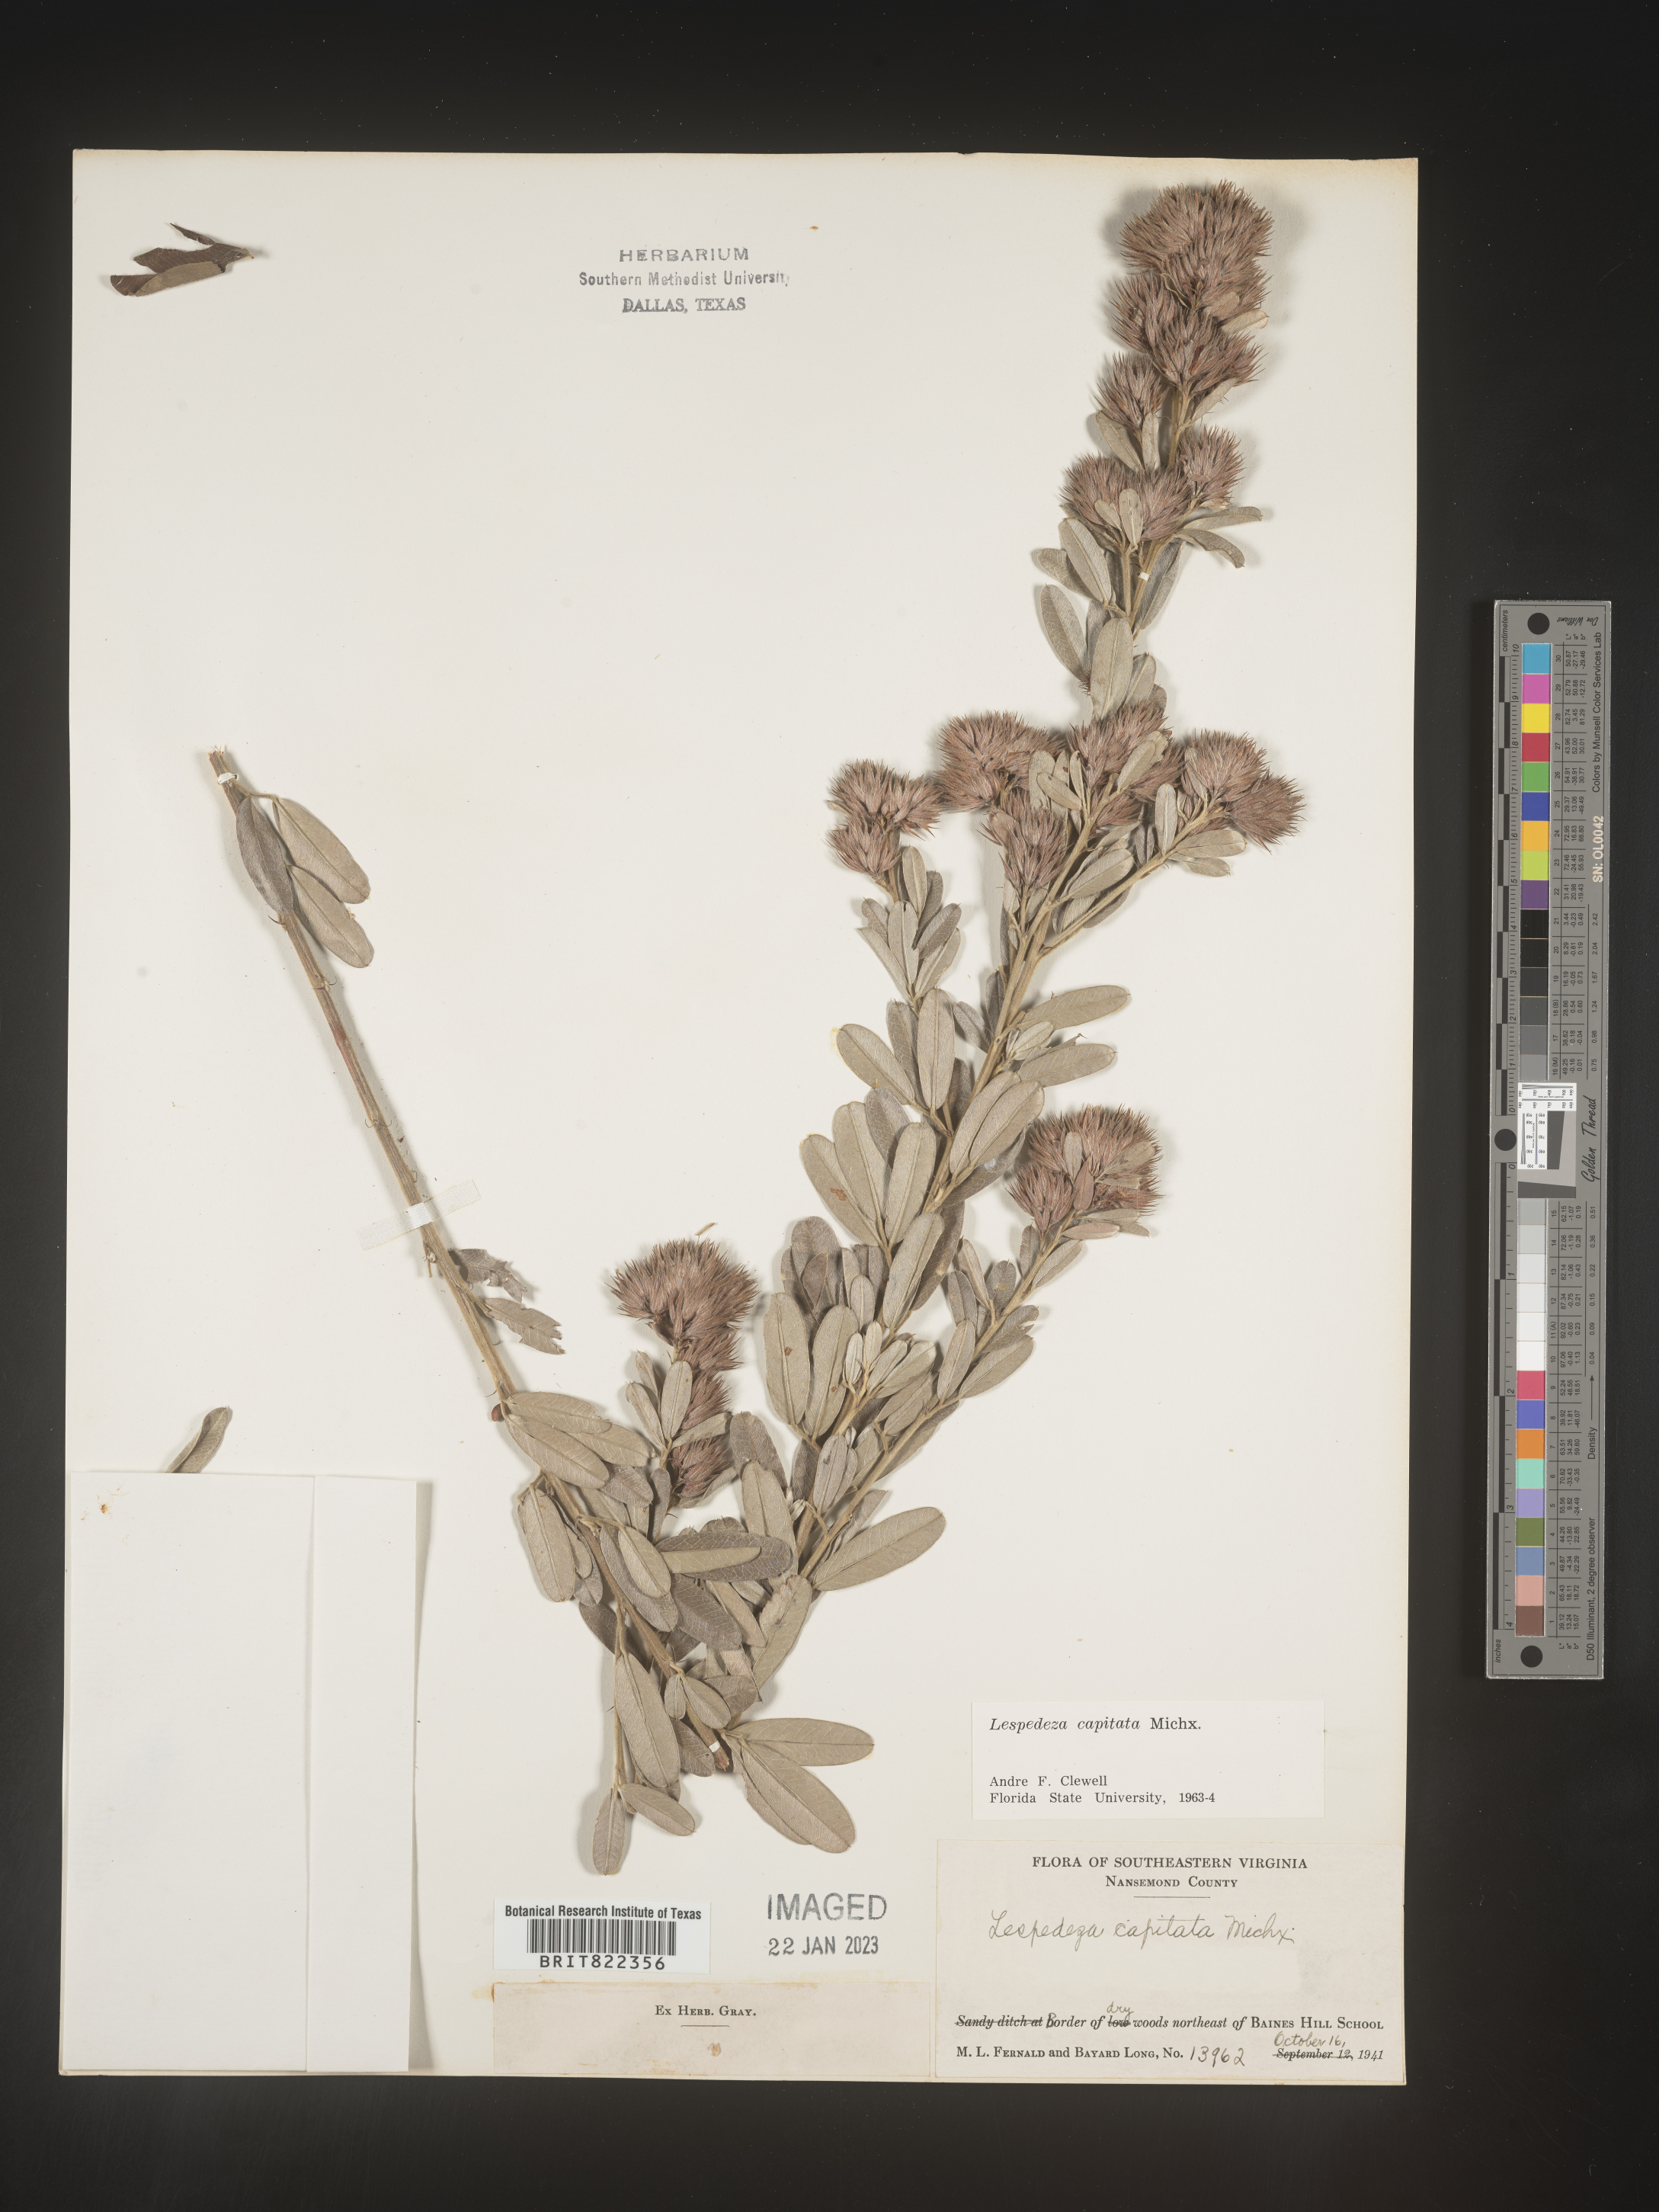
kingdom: Plantae
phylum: Tracheophyta
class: Magnoliopsida
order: Fabales
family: Fabaceae
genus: Lespedeza
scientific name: Lespedeza capitata
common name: Dusty clover
